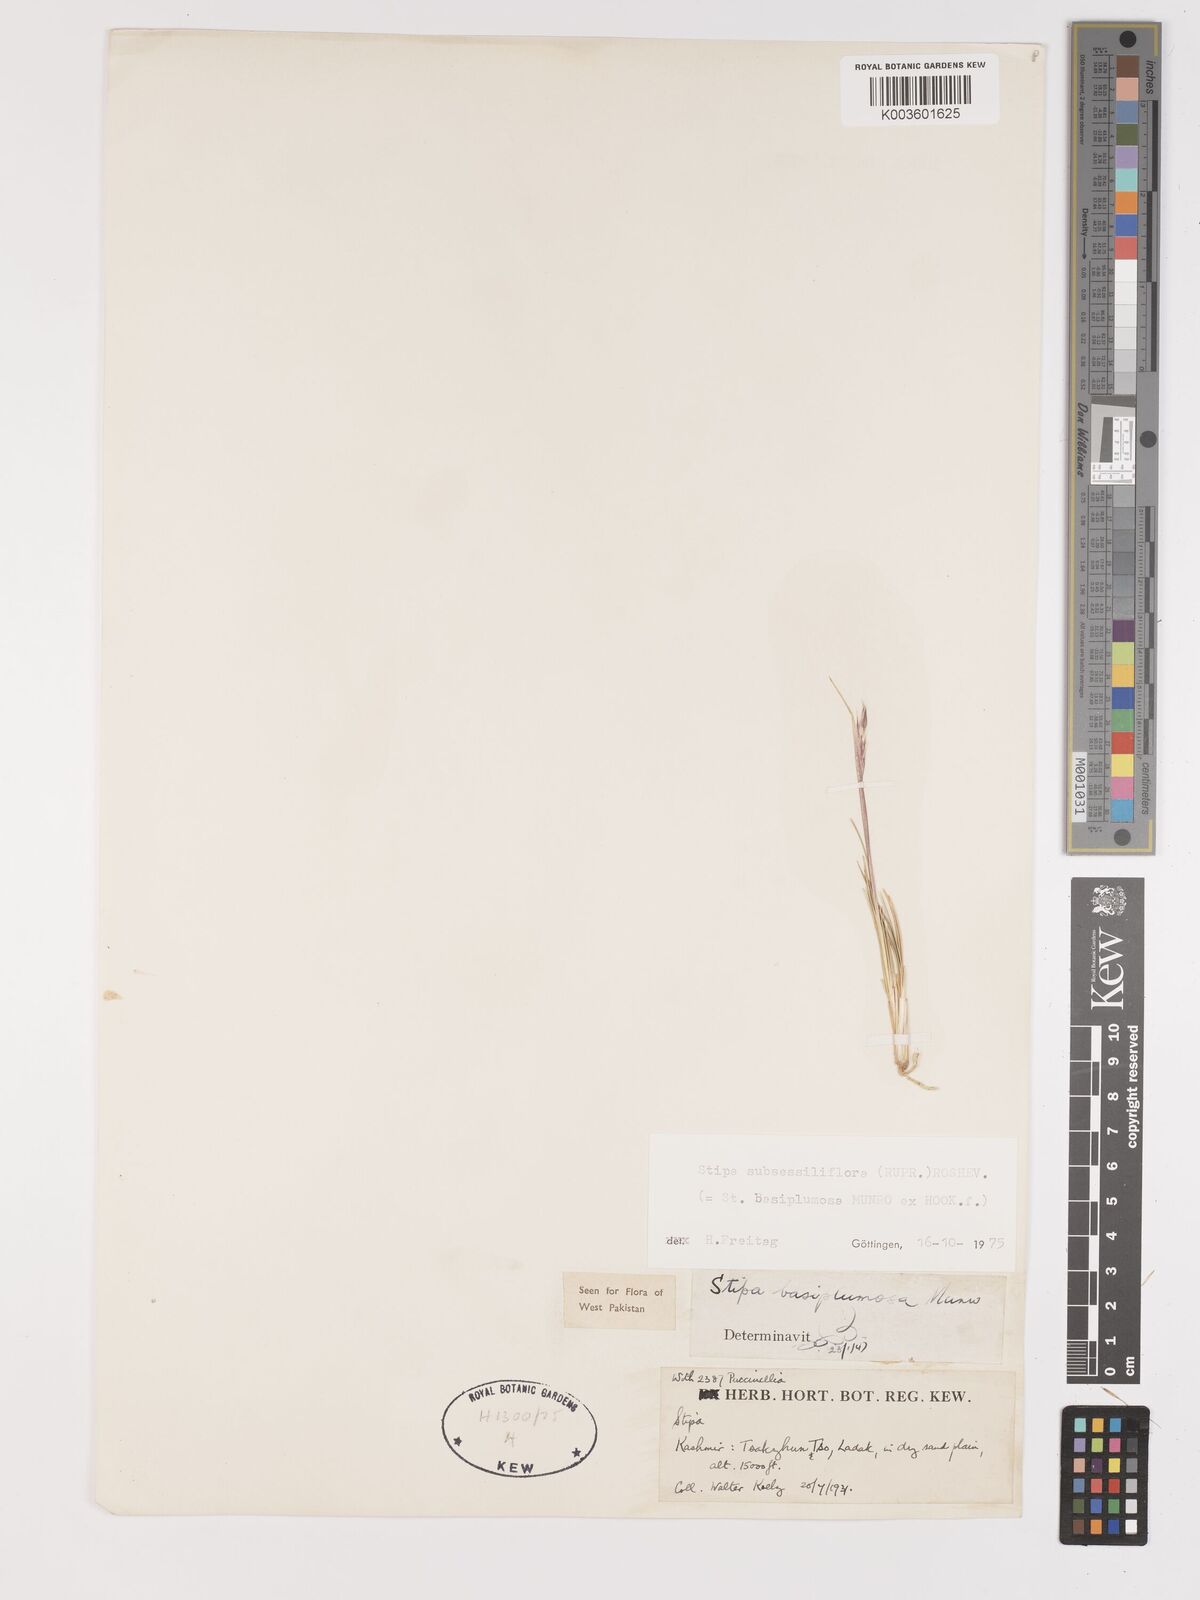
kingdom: Plantae
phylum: Tracheophyta
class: Liliopsida
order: Poales
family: Poaceae
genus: Stipa
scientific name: Stipa subsessiliflora
